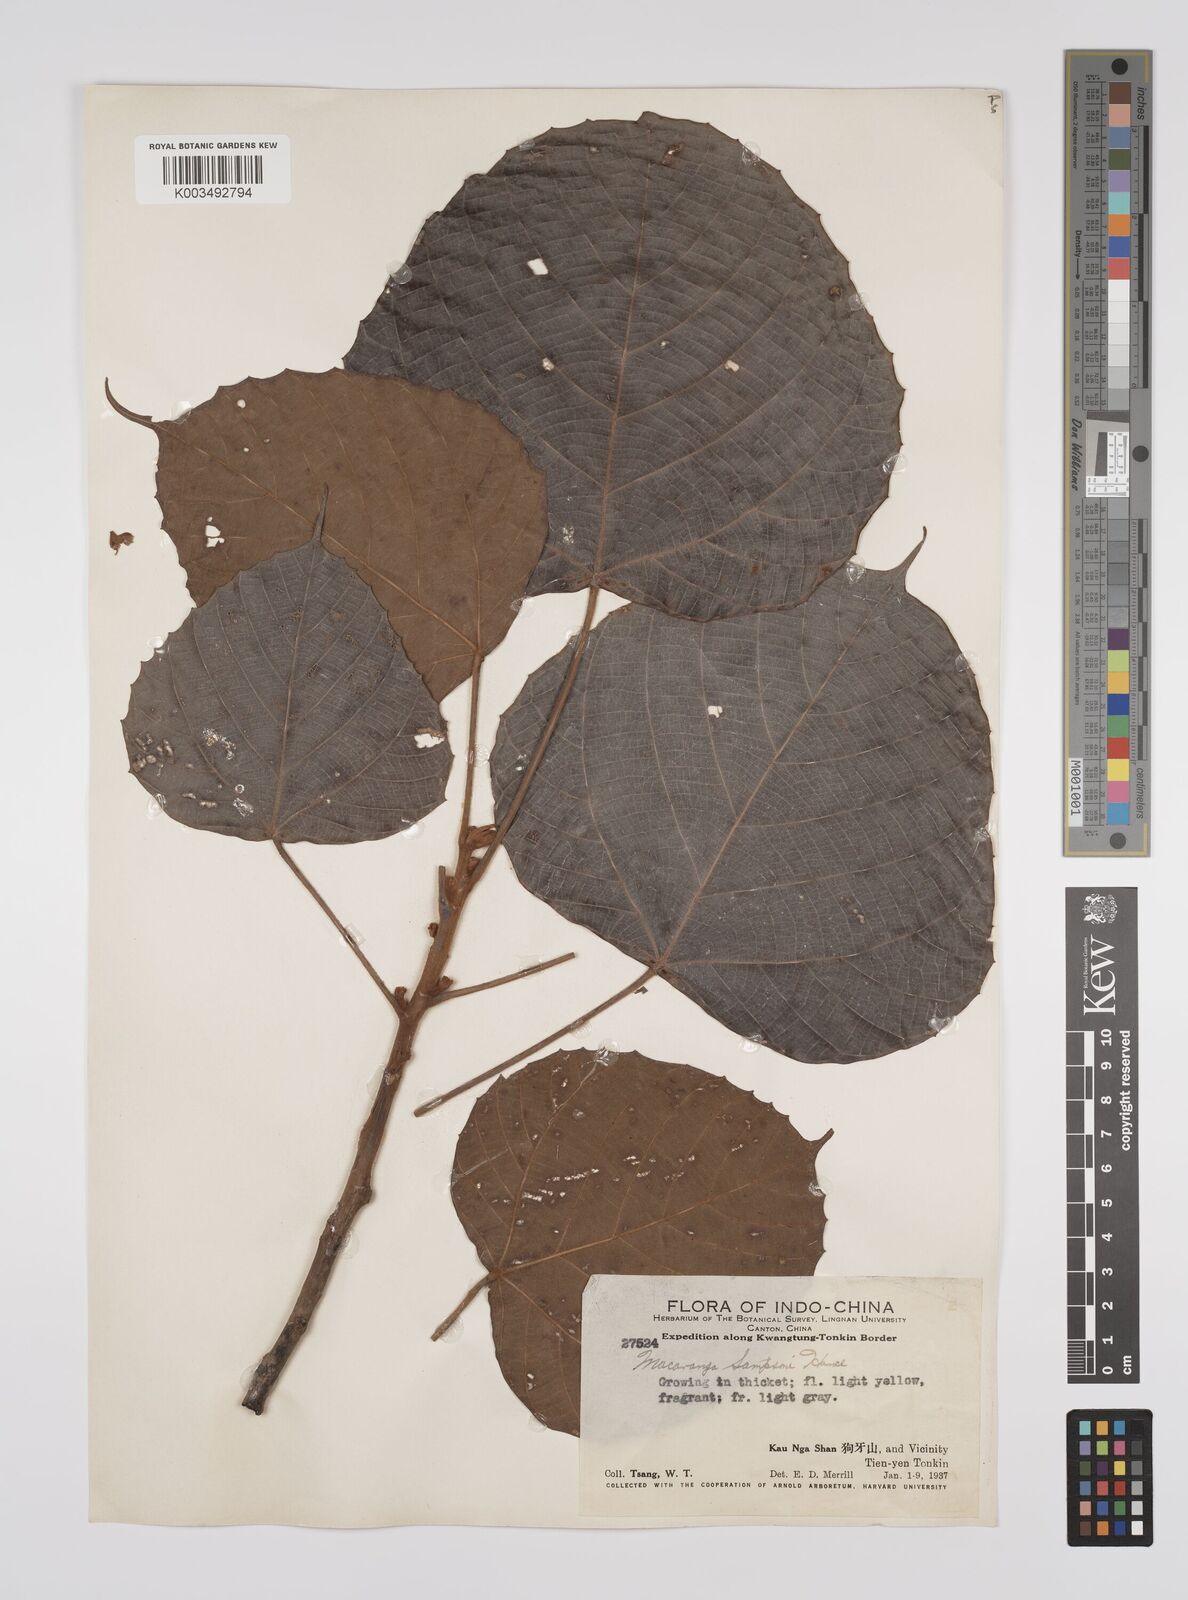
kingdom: Plantae
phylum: Tracheophyta
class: Magnoliopsida
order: Malpighiales
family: Euphorbiaceae
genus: Macaranga
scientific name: Macaranga sampsonii
